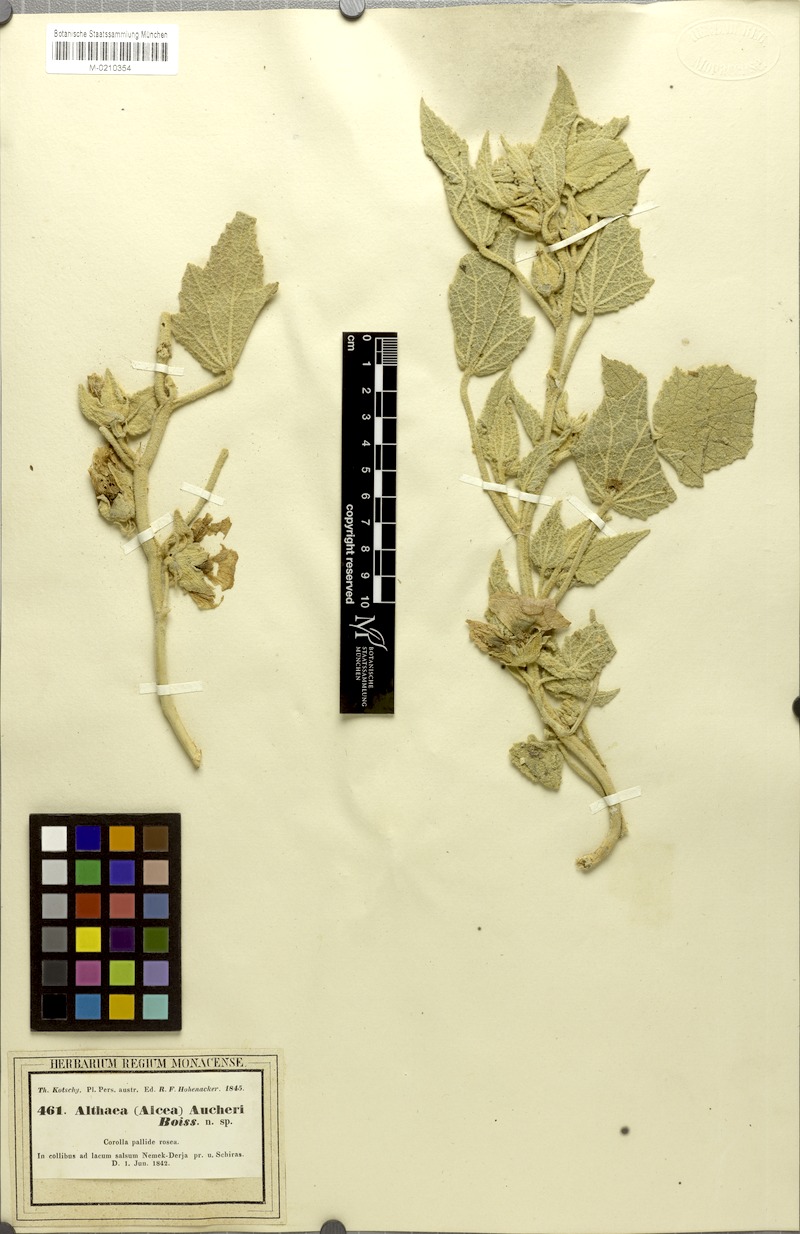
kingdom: Plantae
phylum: Tracheophyta
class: Magnoliopsida
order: Malvales
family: Malvaceae
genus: Alcea
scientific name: Alcea aucheri
